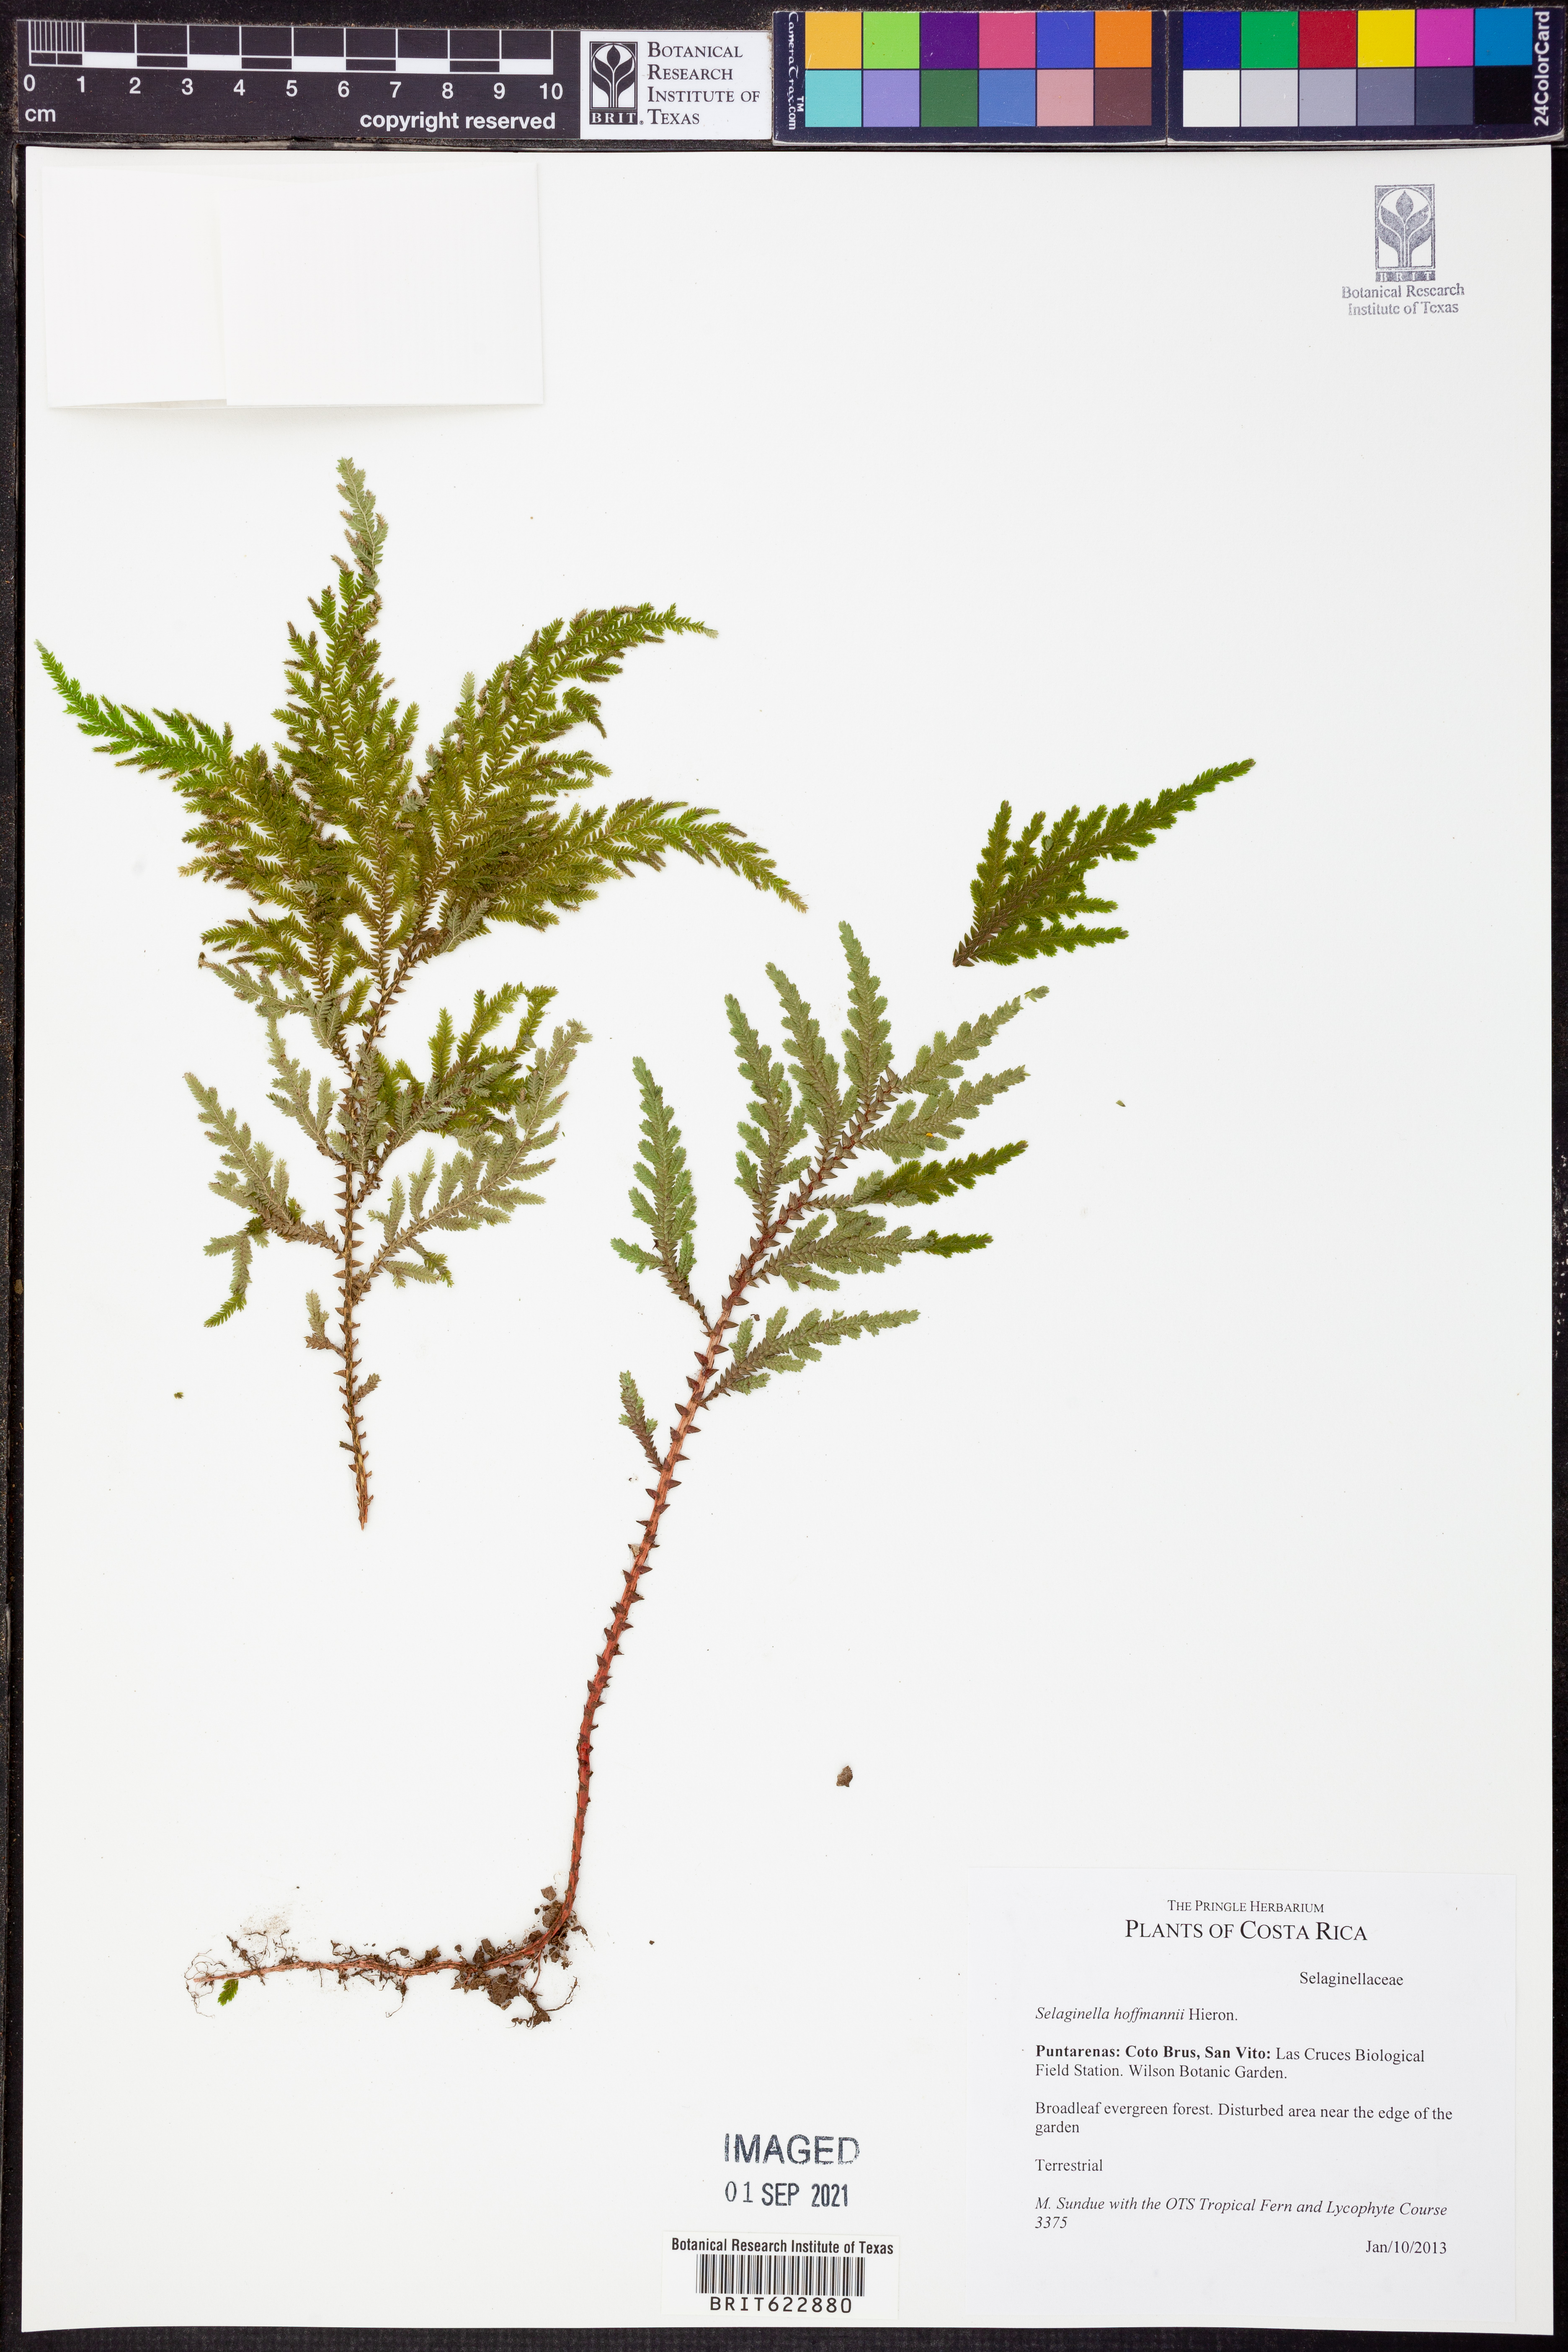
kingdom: Plantae
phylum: Tracheophyta
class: Lycopodiopsida
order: Selaginellales
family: Selaginellaceae
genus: Selaginella
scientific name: Selaginella hoffmannii
